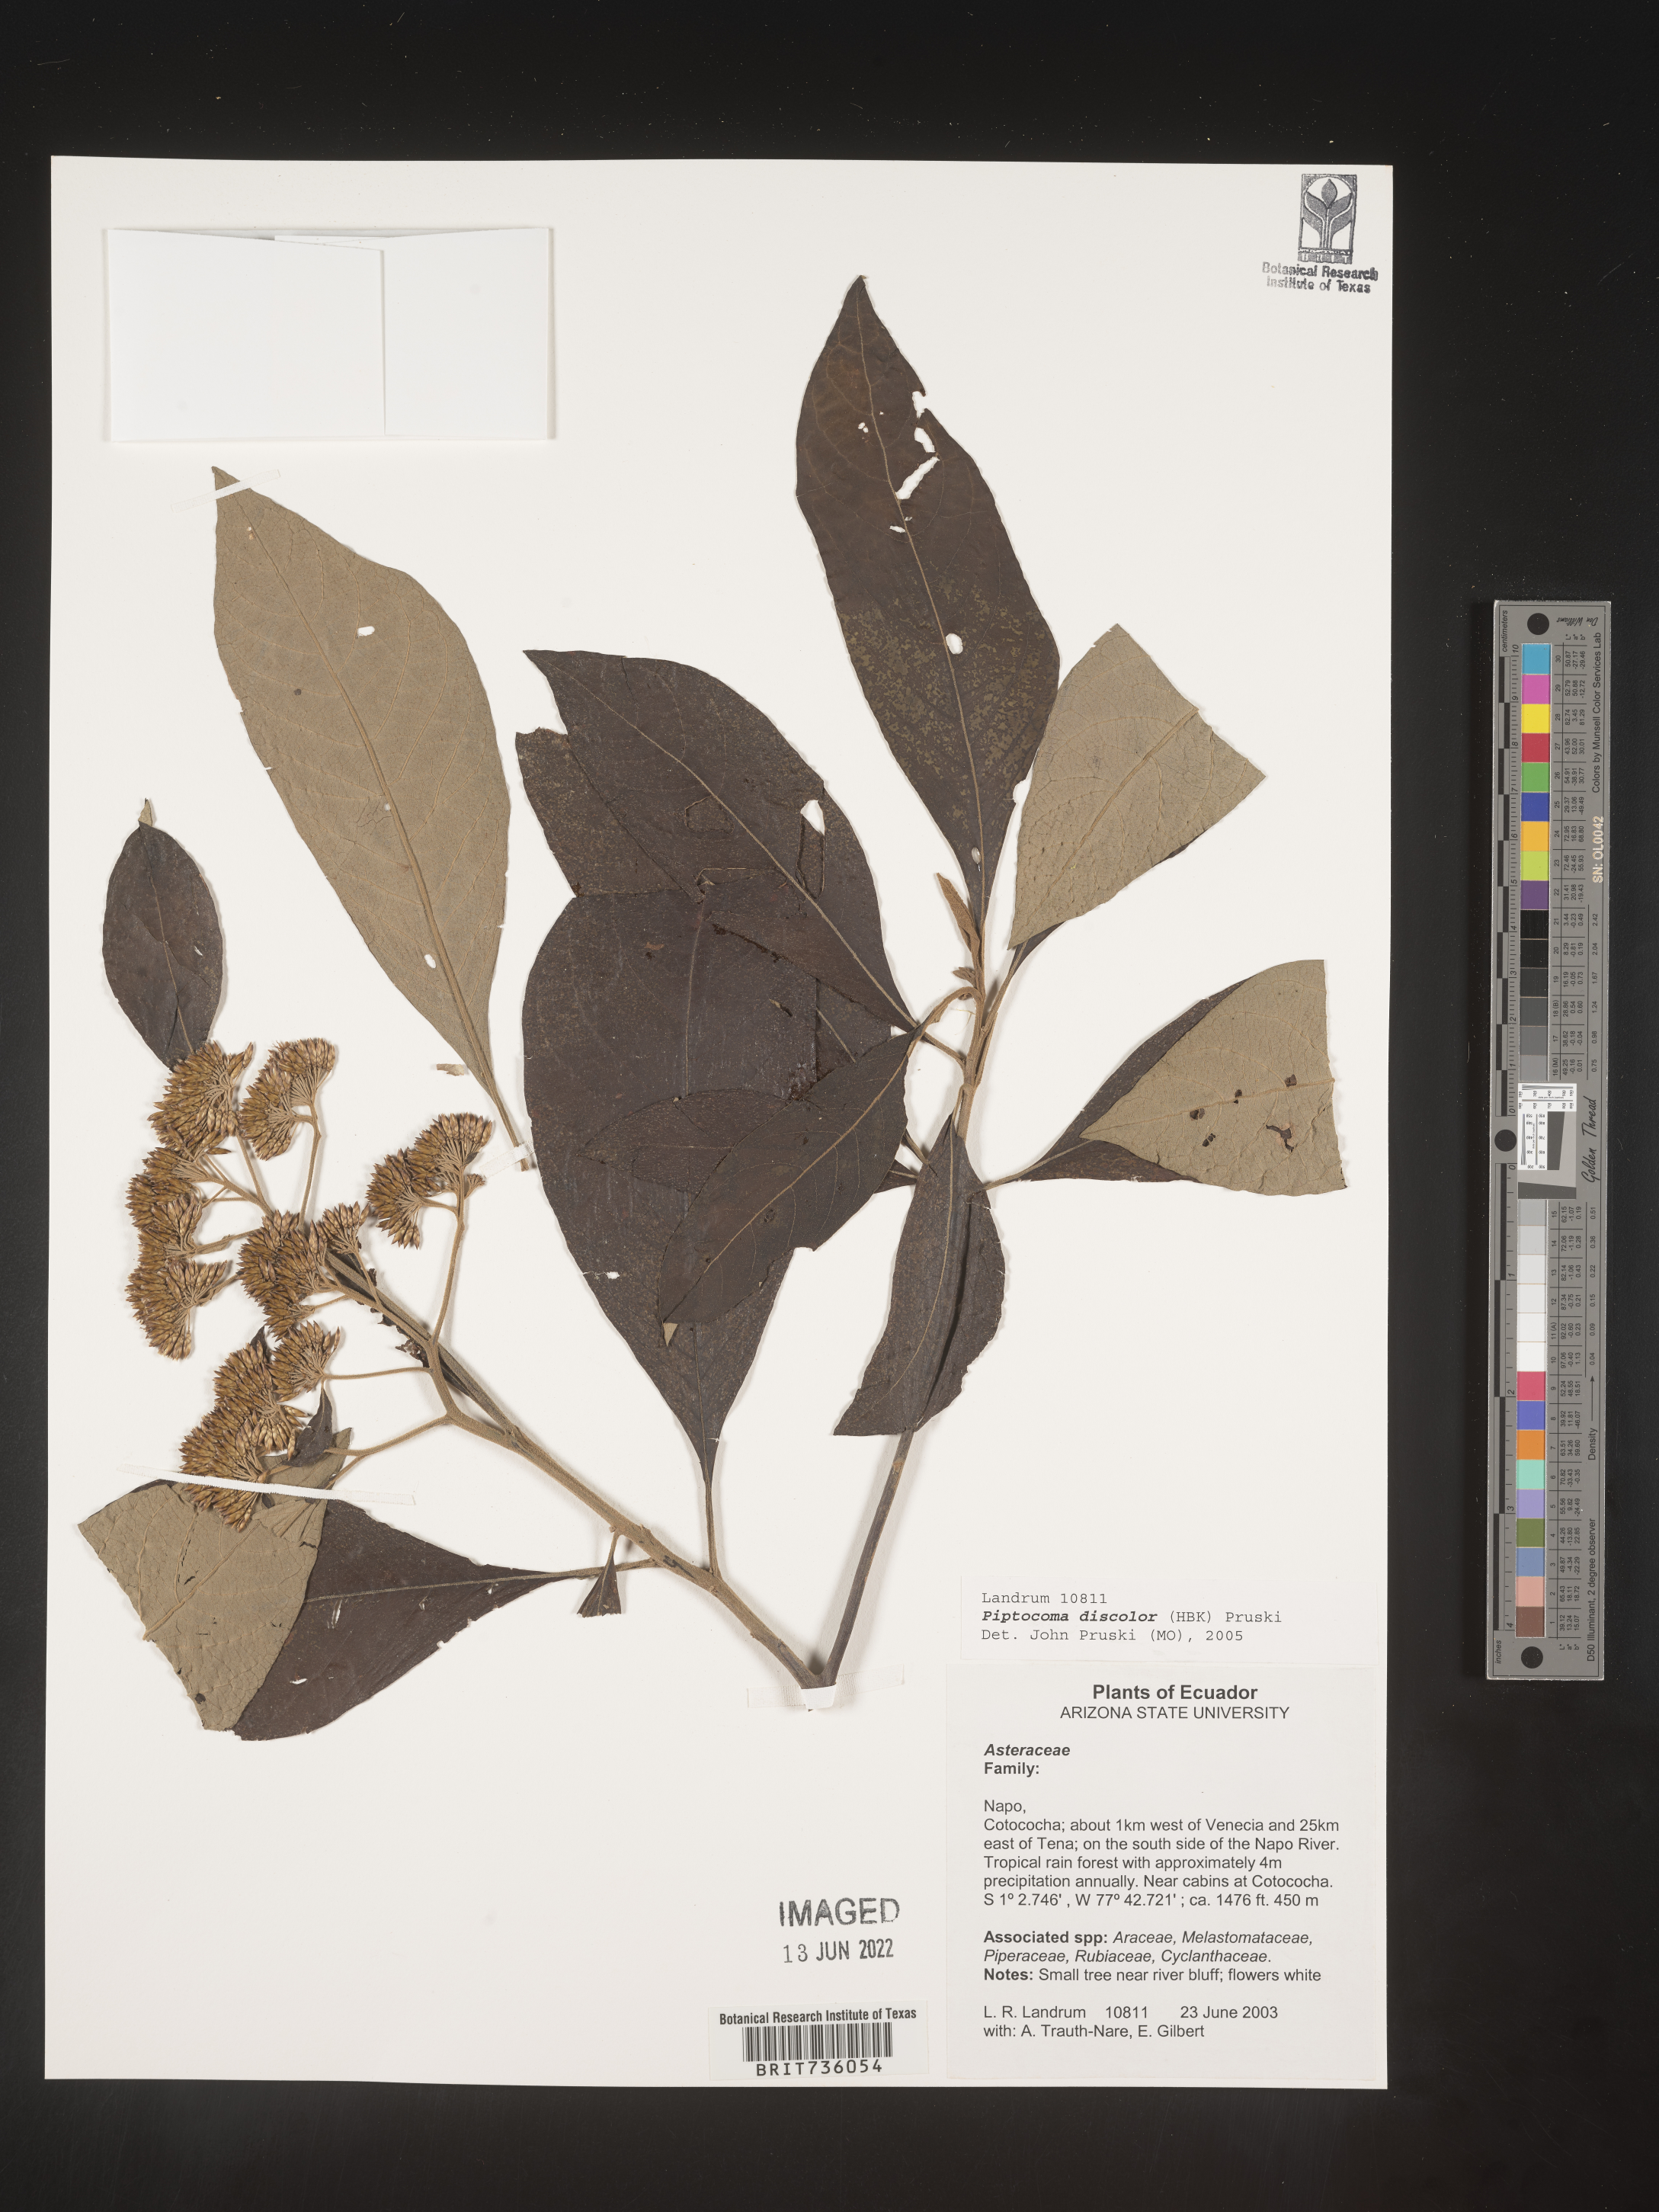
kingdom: Plantae
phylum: Tracheophyta
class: Magnoliopsida
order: Asterales
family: Asteraceae
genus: Piptocoma
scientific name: Piptocoma
